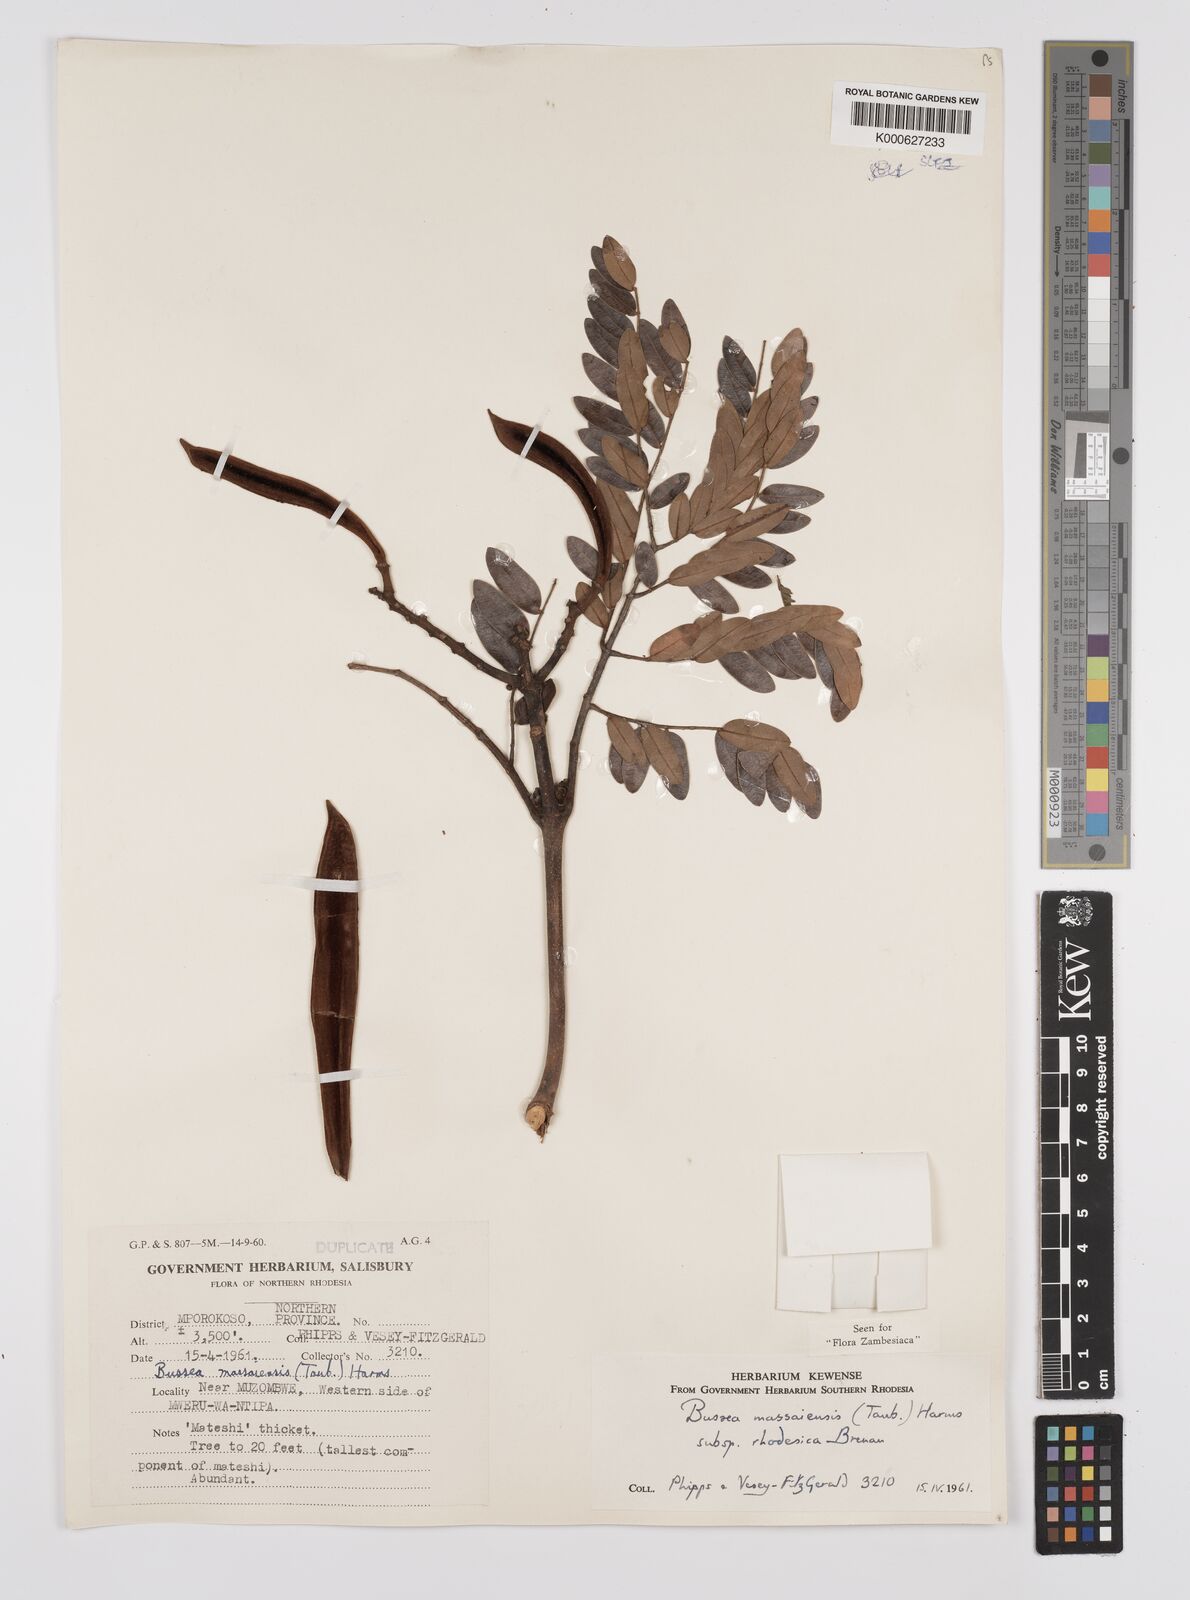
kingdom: Plantae
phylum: Tracheophyta
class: Magnoliopsida
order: Fabales
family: Fabaceae
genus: Bussea
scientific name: Bussea
